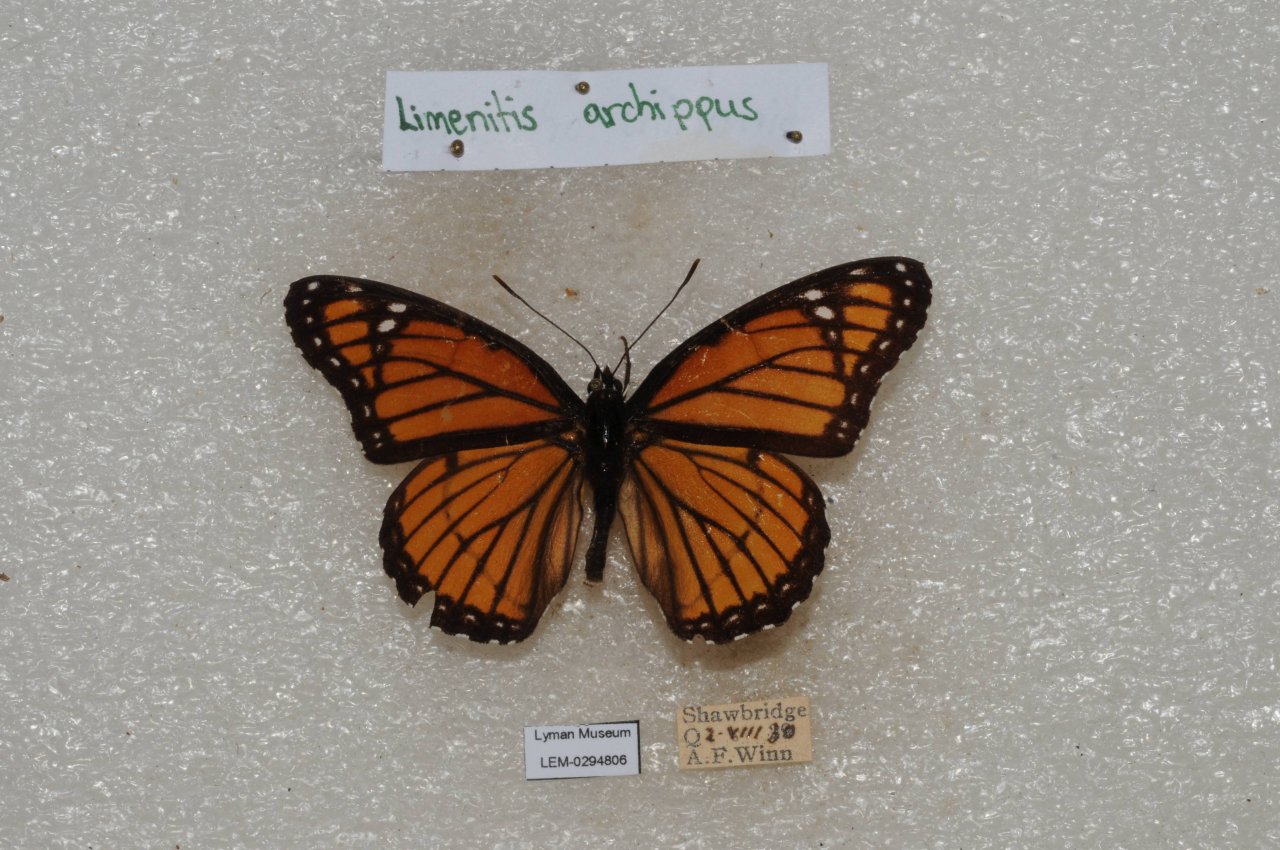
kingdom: Animalia
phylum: Arthropoda
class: Insecta
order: Lepidoptera
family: Nymphalidae
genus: Limenitis
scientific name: Limenitis archippus
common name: Viceroy
